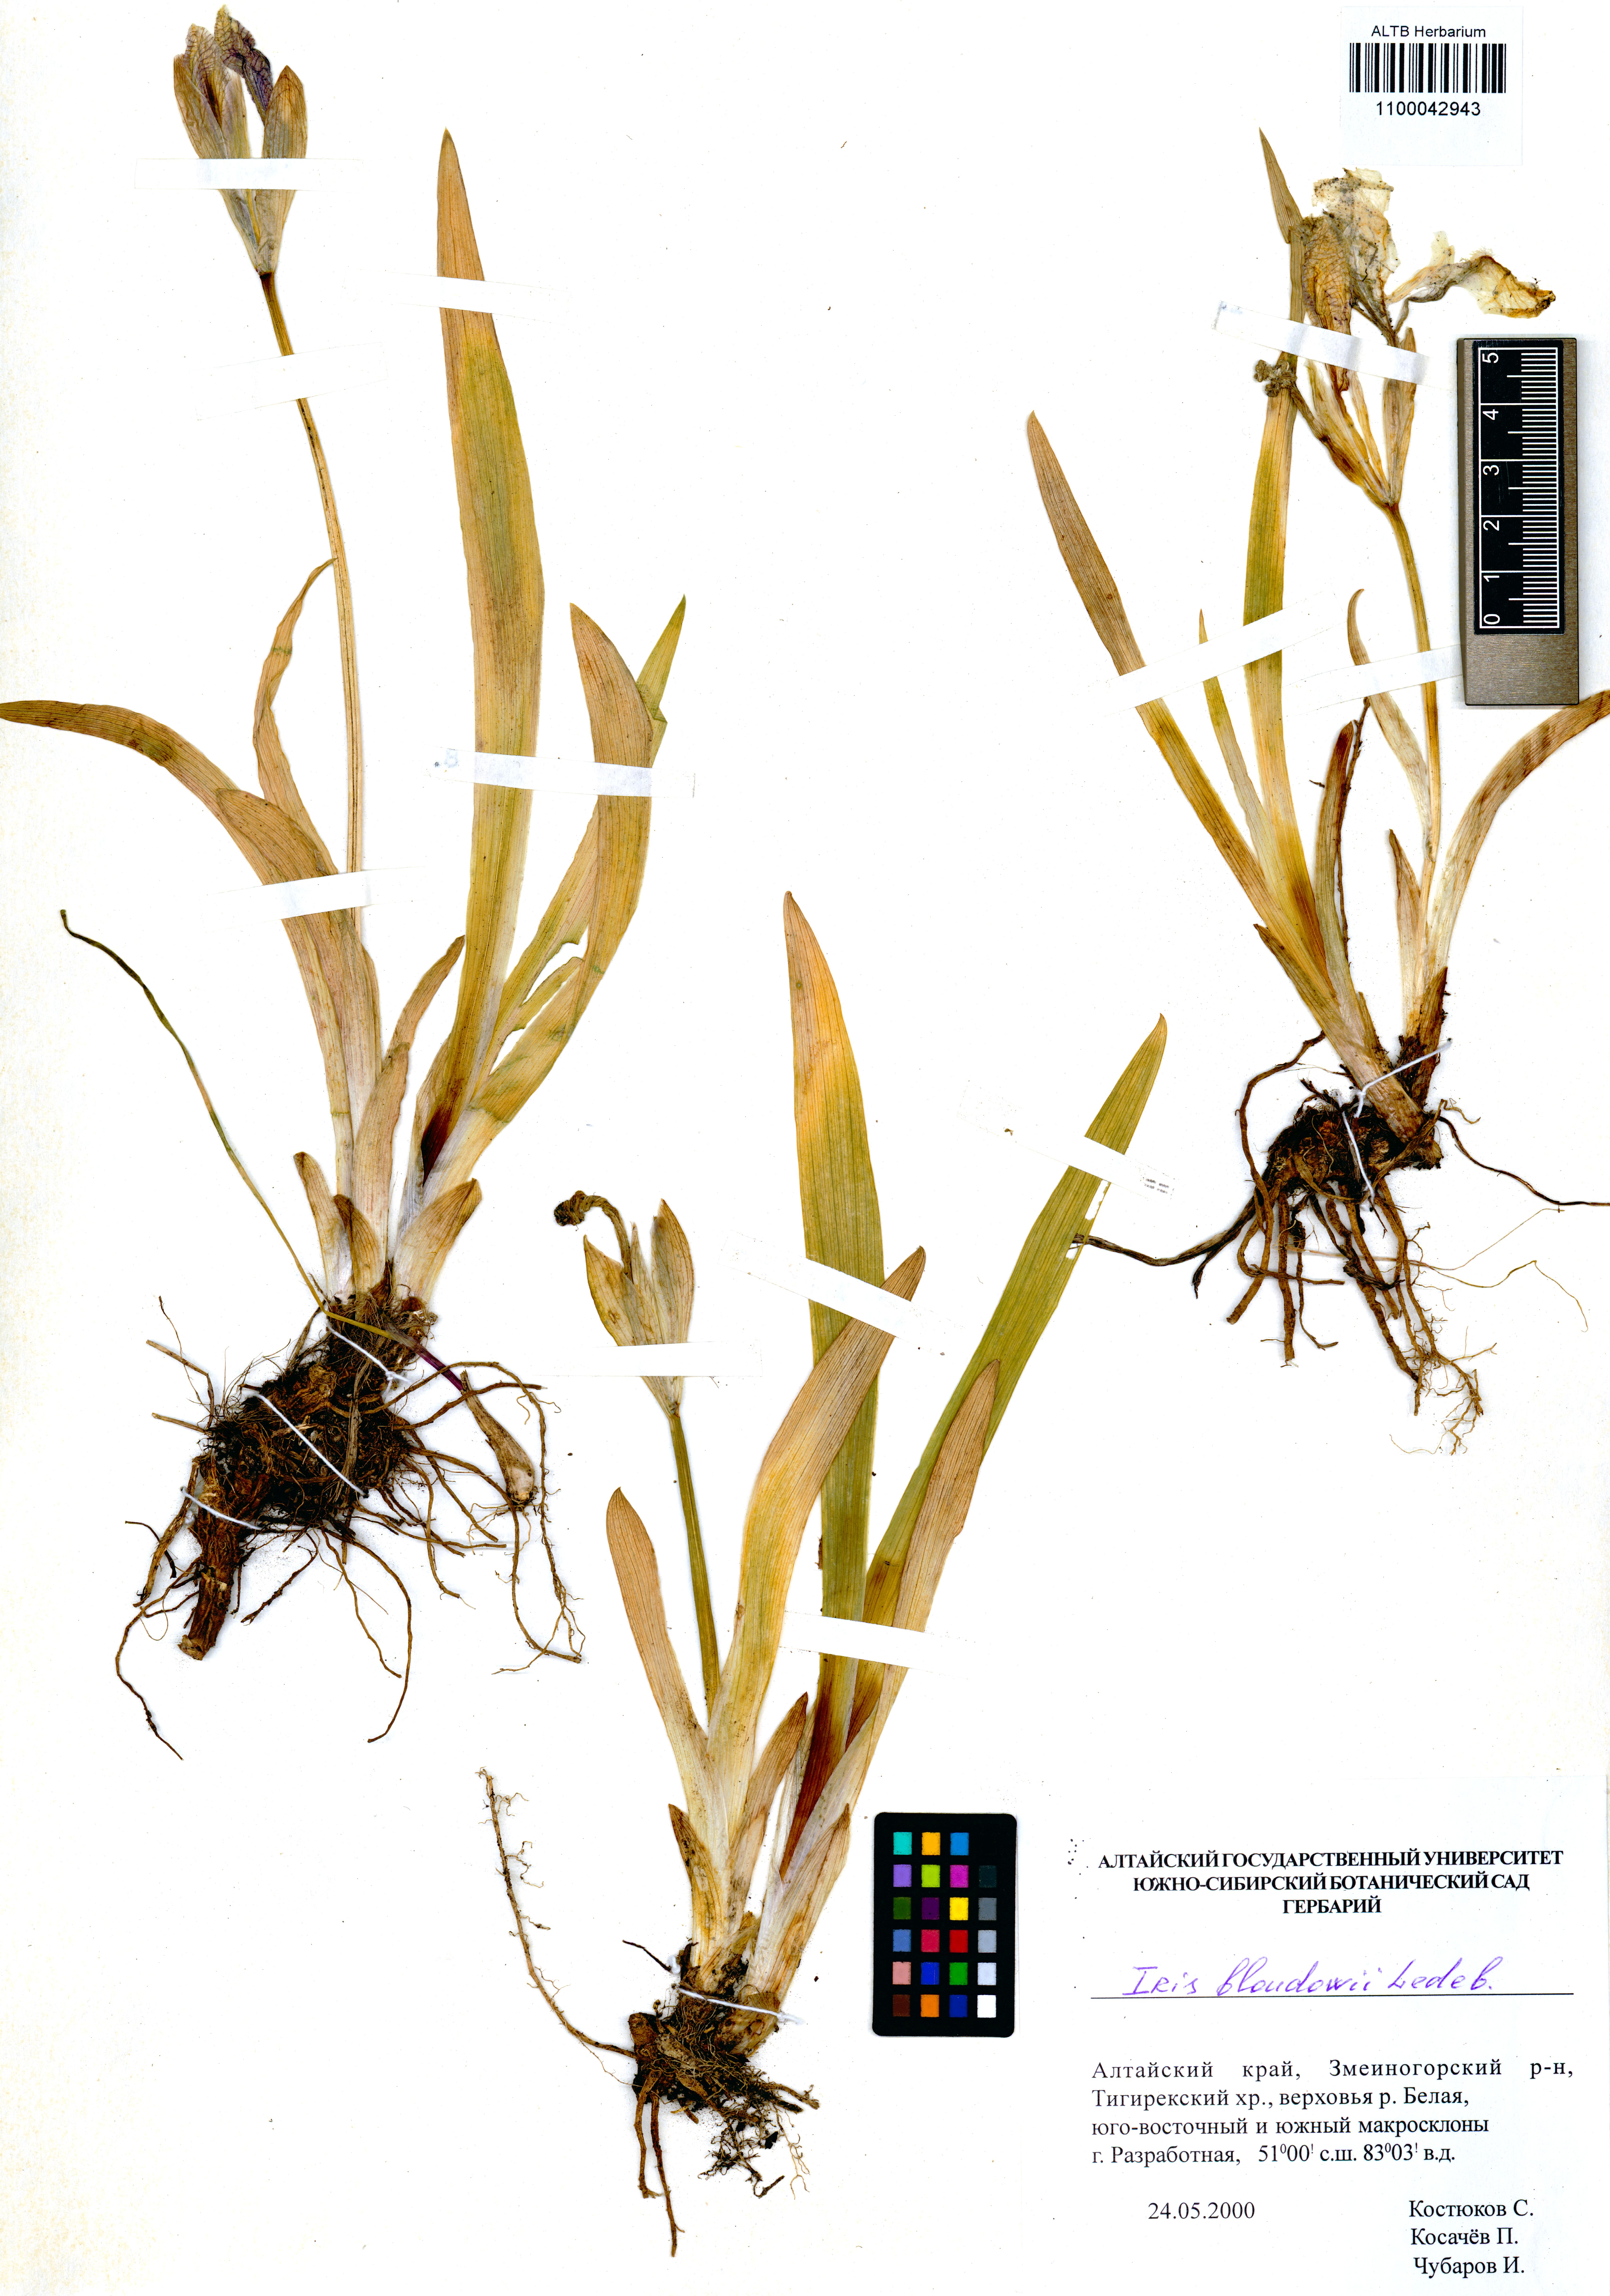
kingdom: Plantae
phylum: Tracheophyta
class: Liliopsida
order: Asparagales
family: Iridaceae
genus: Iris
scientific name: Iris bloudowii
